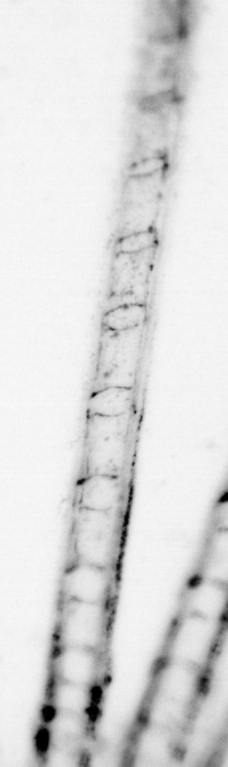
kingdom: Animalia
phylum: Chordata
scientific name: Chordata
